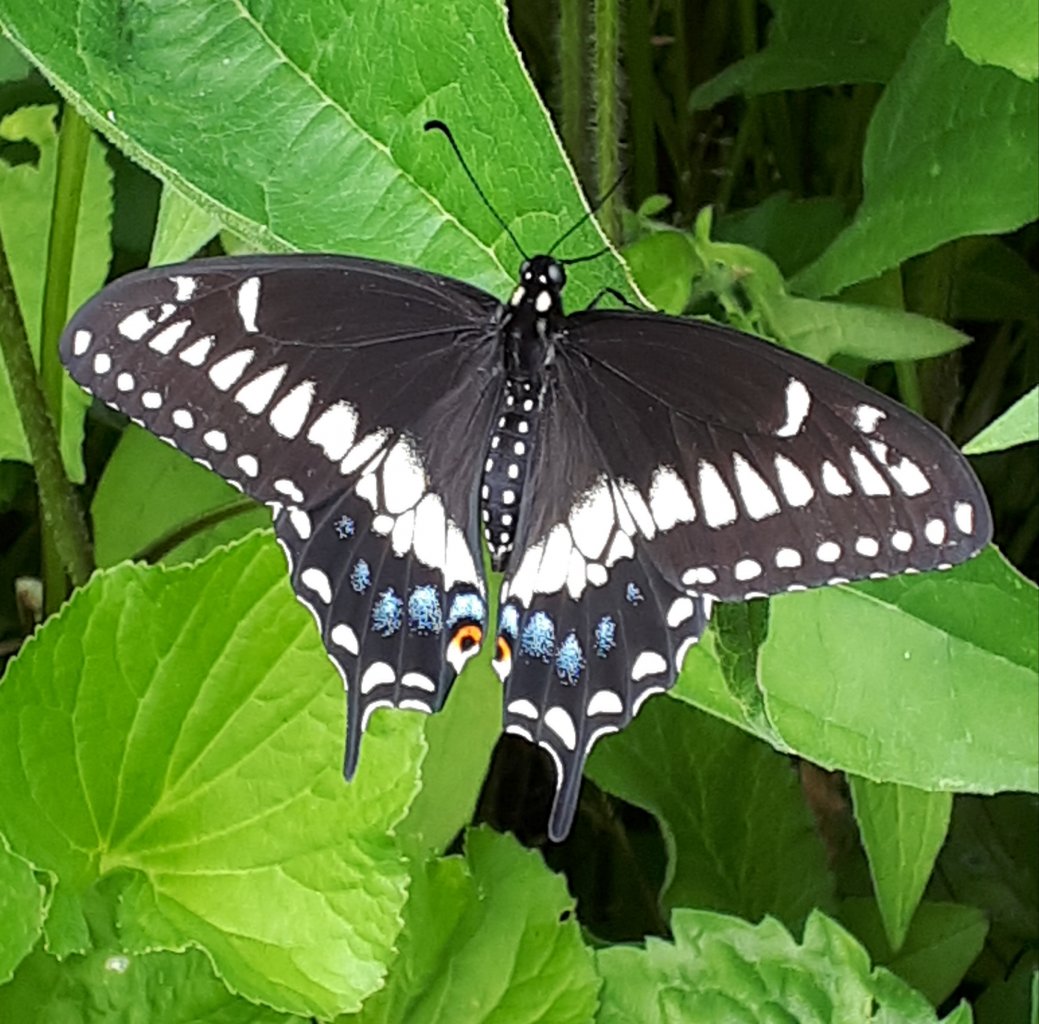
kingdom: Animalia
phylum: Arthropoda
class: Insecta
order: Lepidoptera
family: Papilionidae
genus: Papilio
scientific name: Papilio polyxenes
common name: Black Swallowtail
